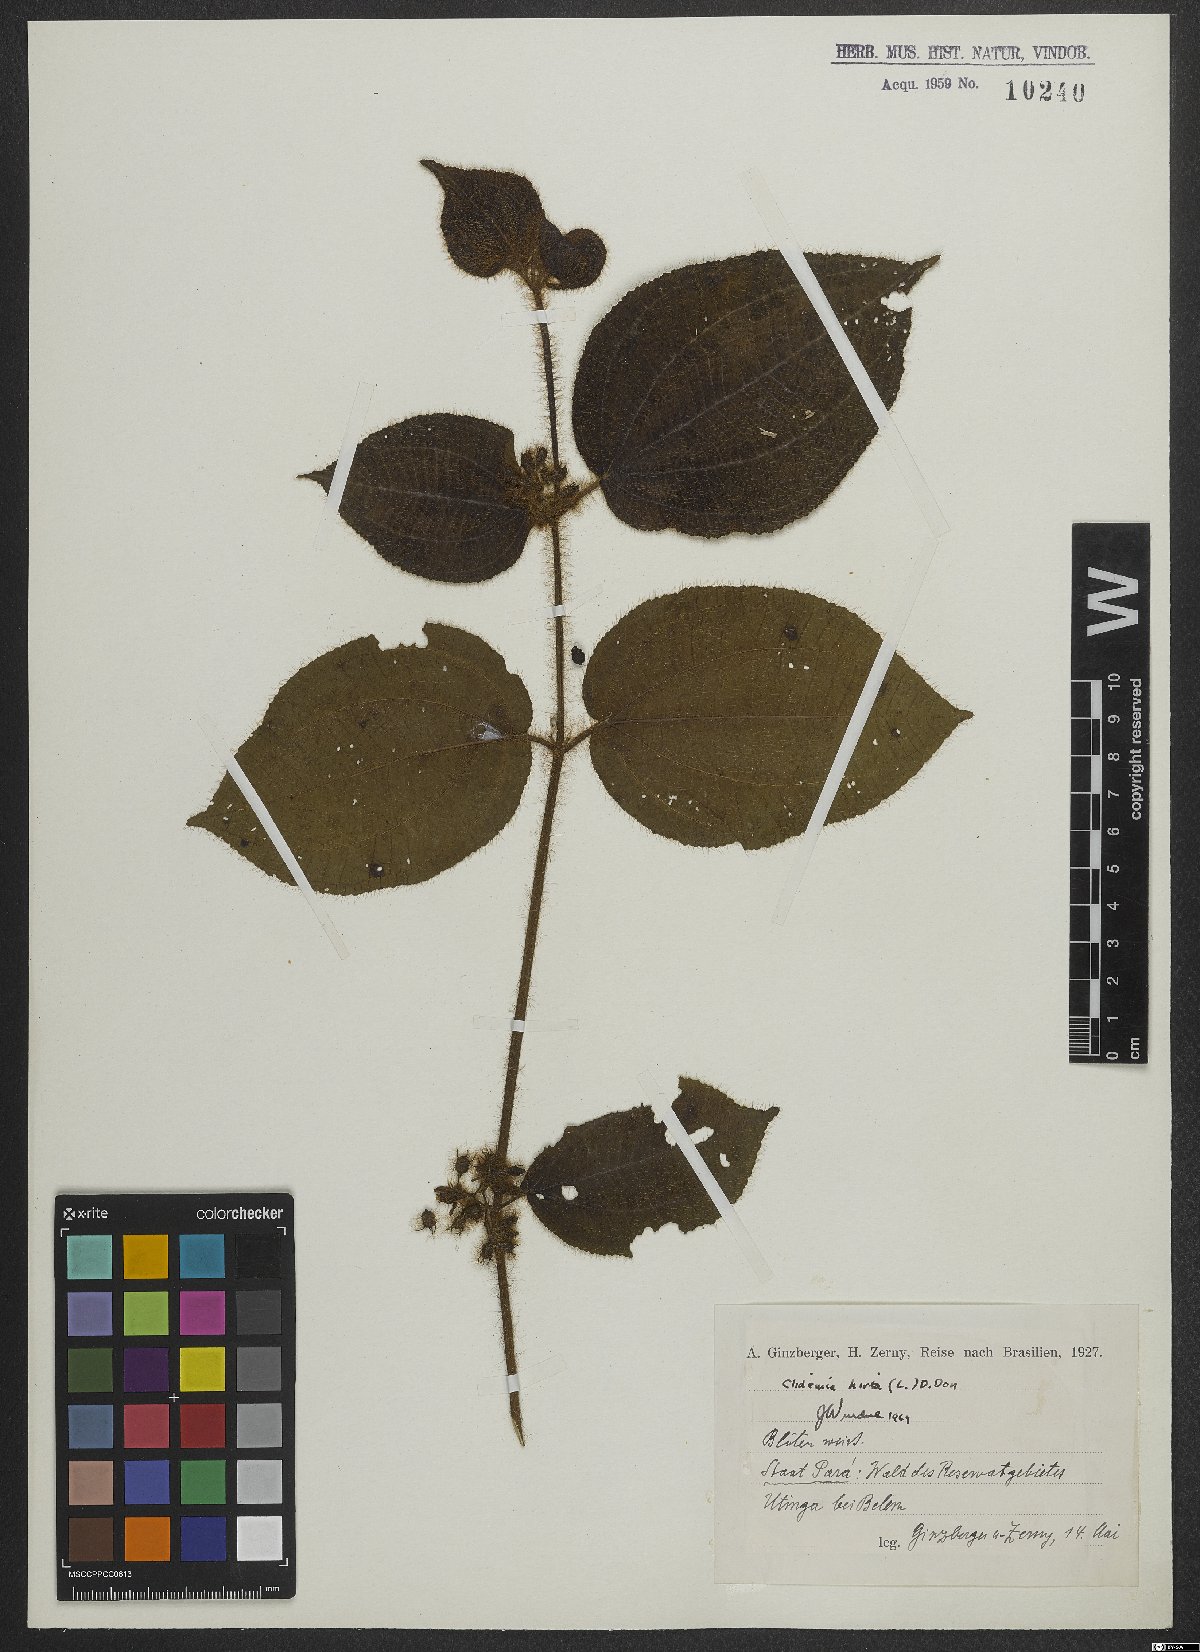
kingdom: Plantae
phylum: Tracheophyta
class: Magnoliopsida
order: Myrtales
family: Melastomataceae
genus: Miconia
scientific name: Miconia crenata
